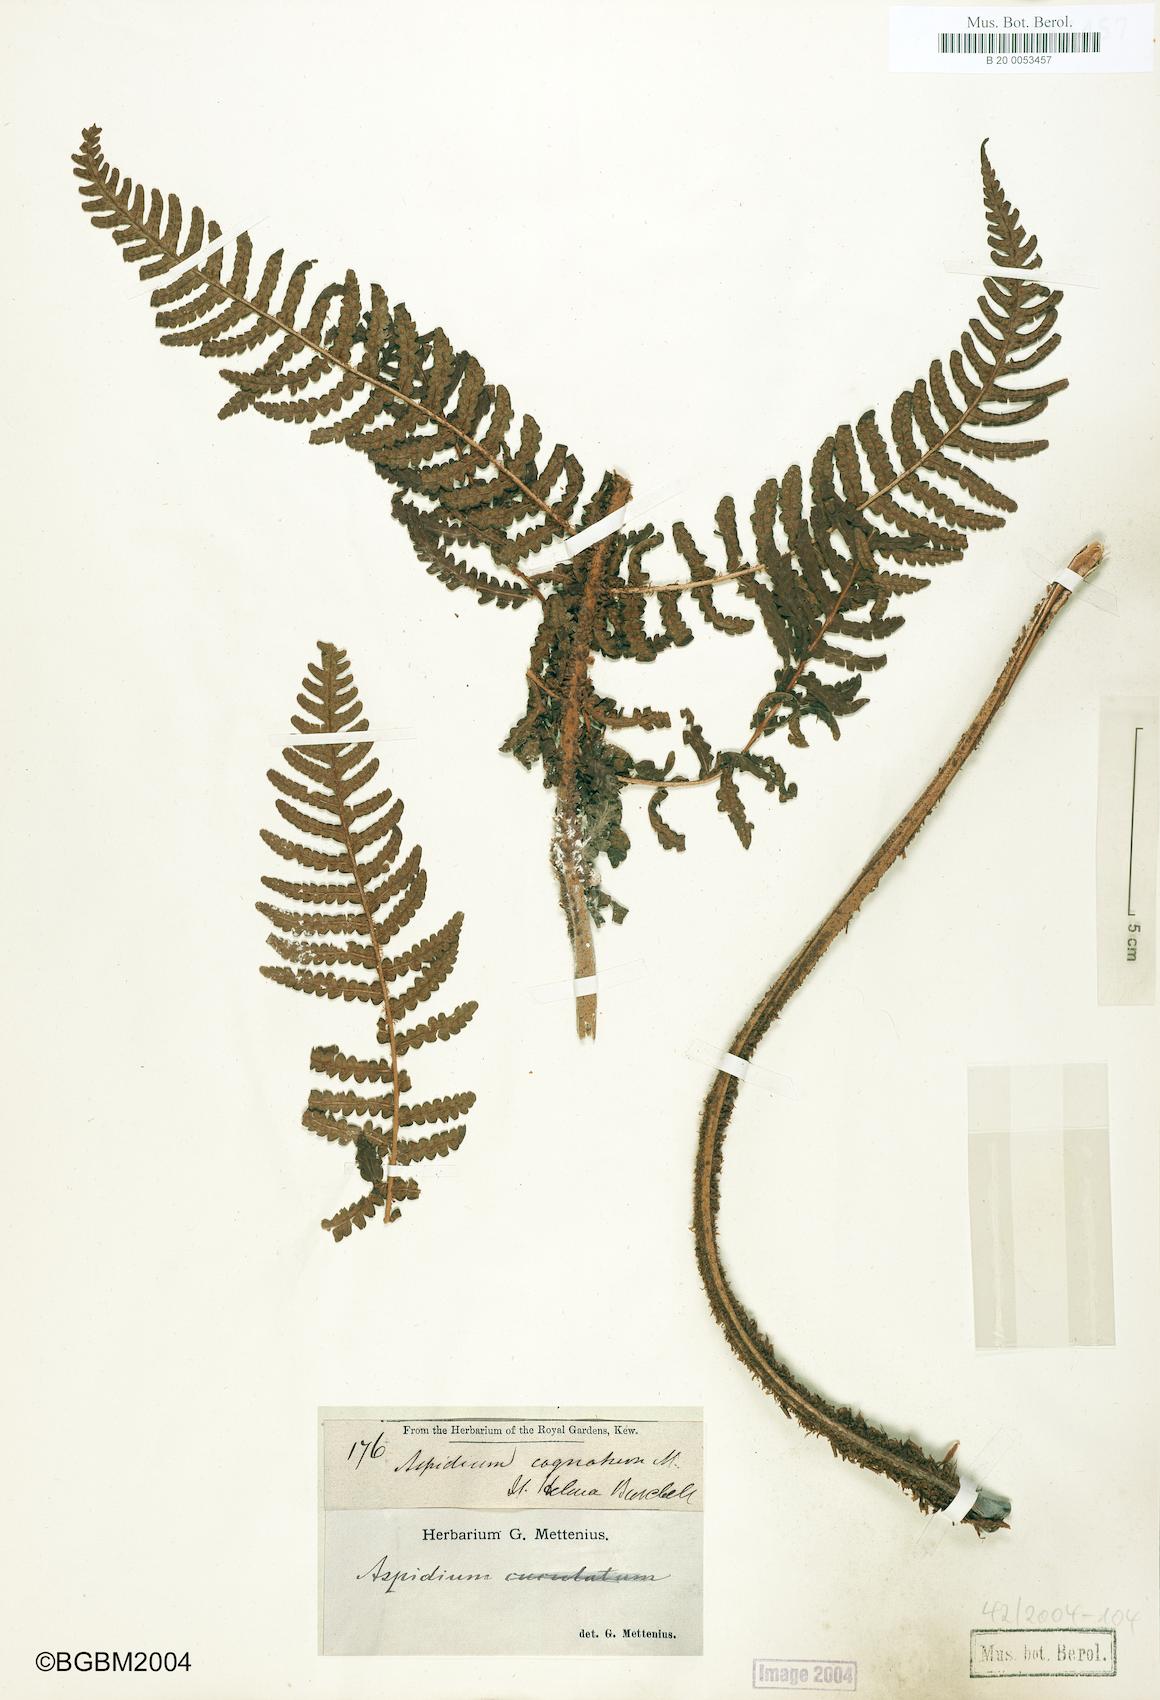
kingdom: Plantae
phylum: Tracheophyta
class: Polypodiopsida
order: Polypodiales
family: Dryopteridaceae
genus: Dryopteris
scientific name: Dryopteris cognata
